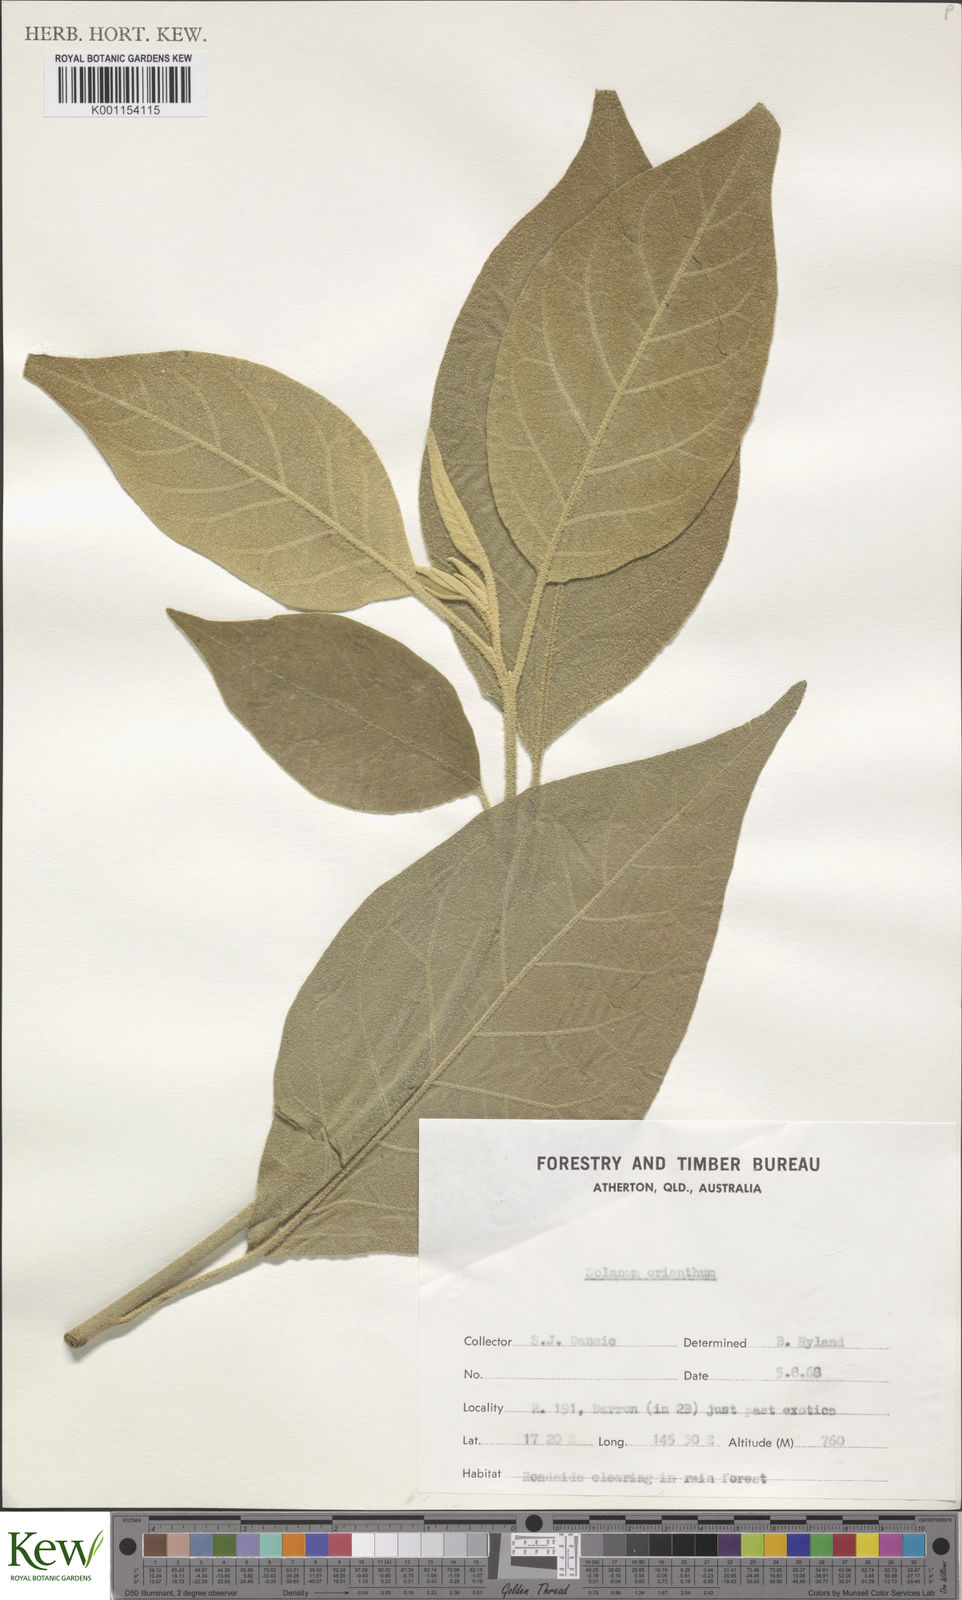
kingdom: Plantae
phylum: Tracheophyta
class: Magnoliopsida
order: Solanales
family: Solanaceae
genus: Solanum
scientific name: Solanum erianthum
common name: Tobacco-tree
